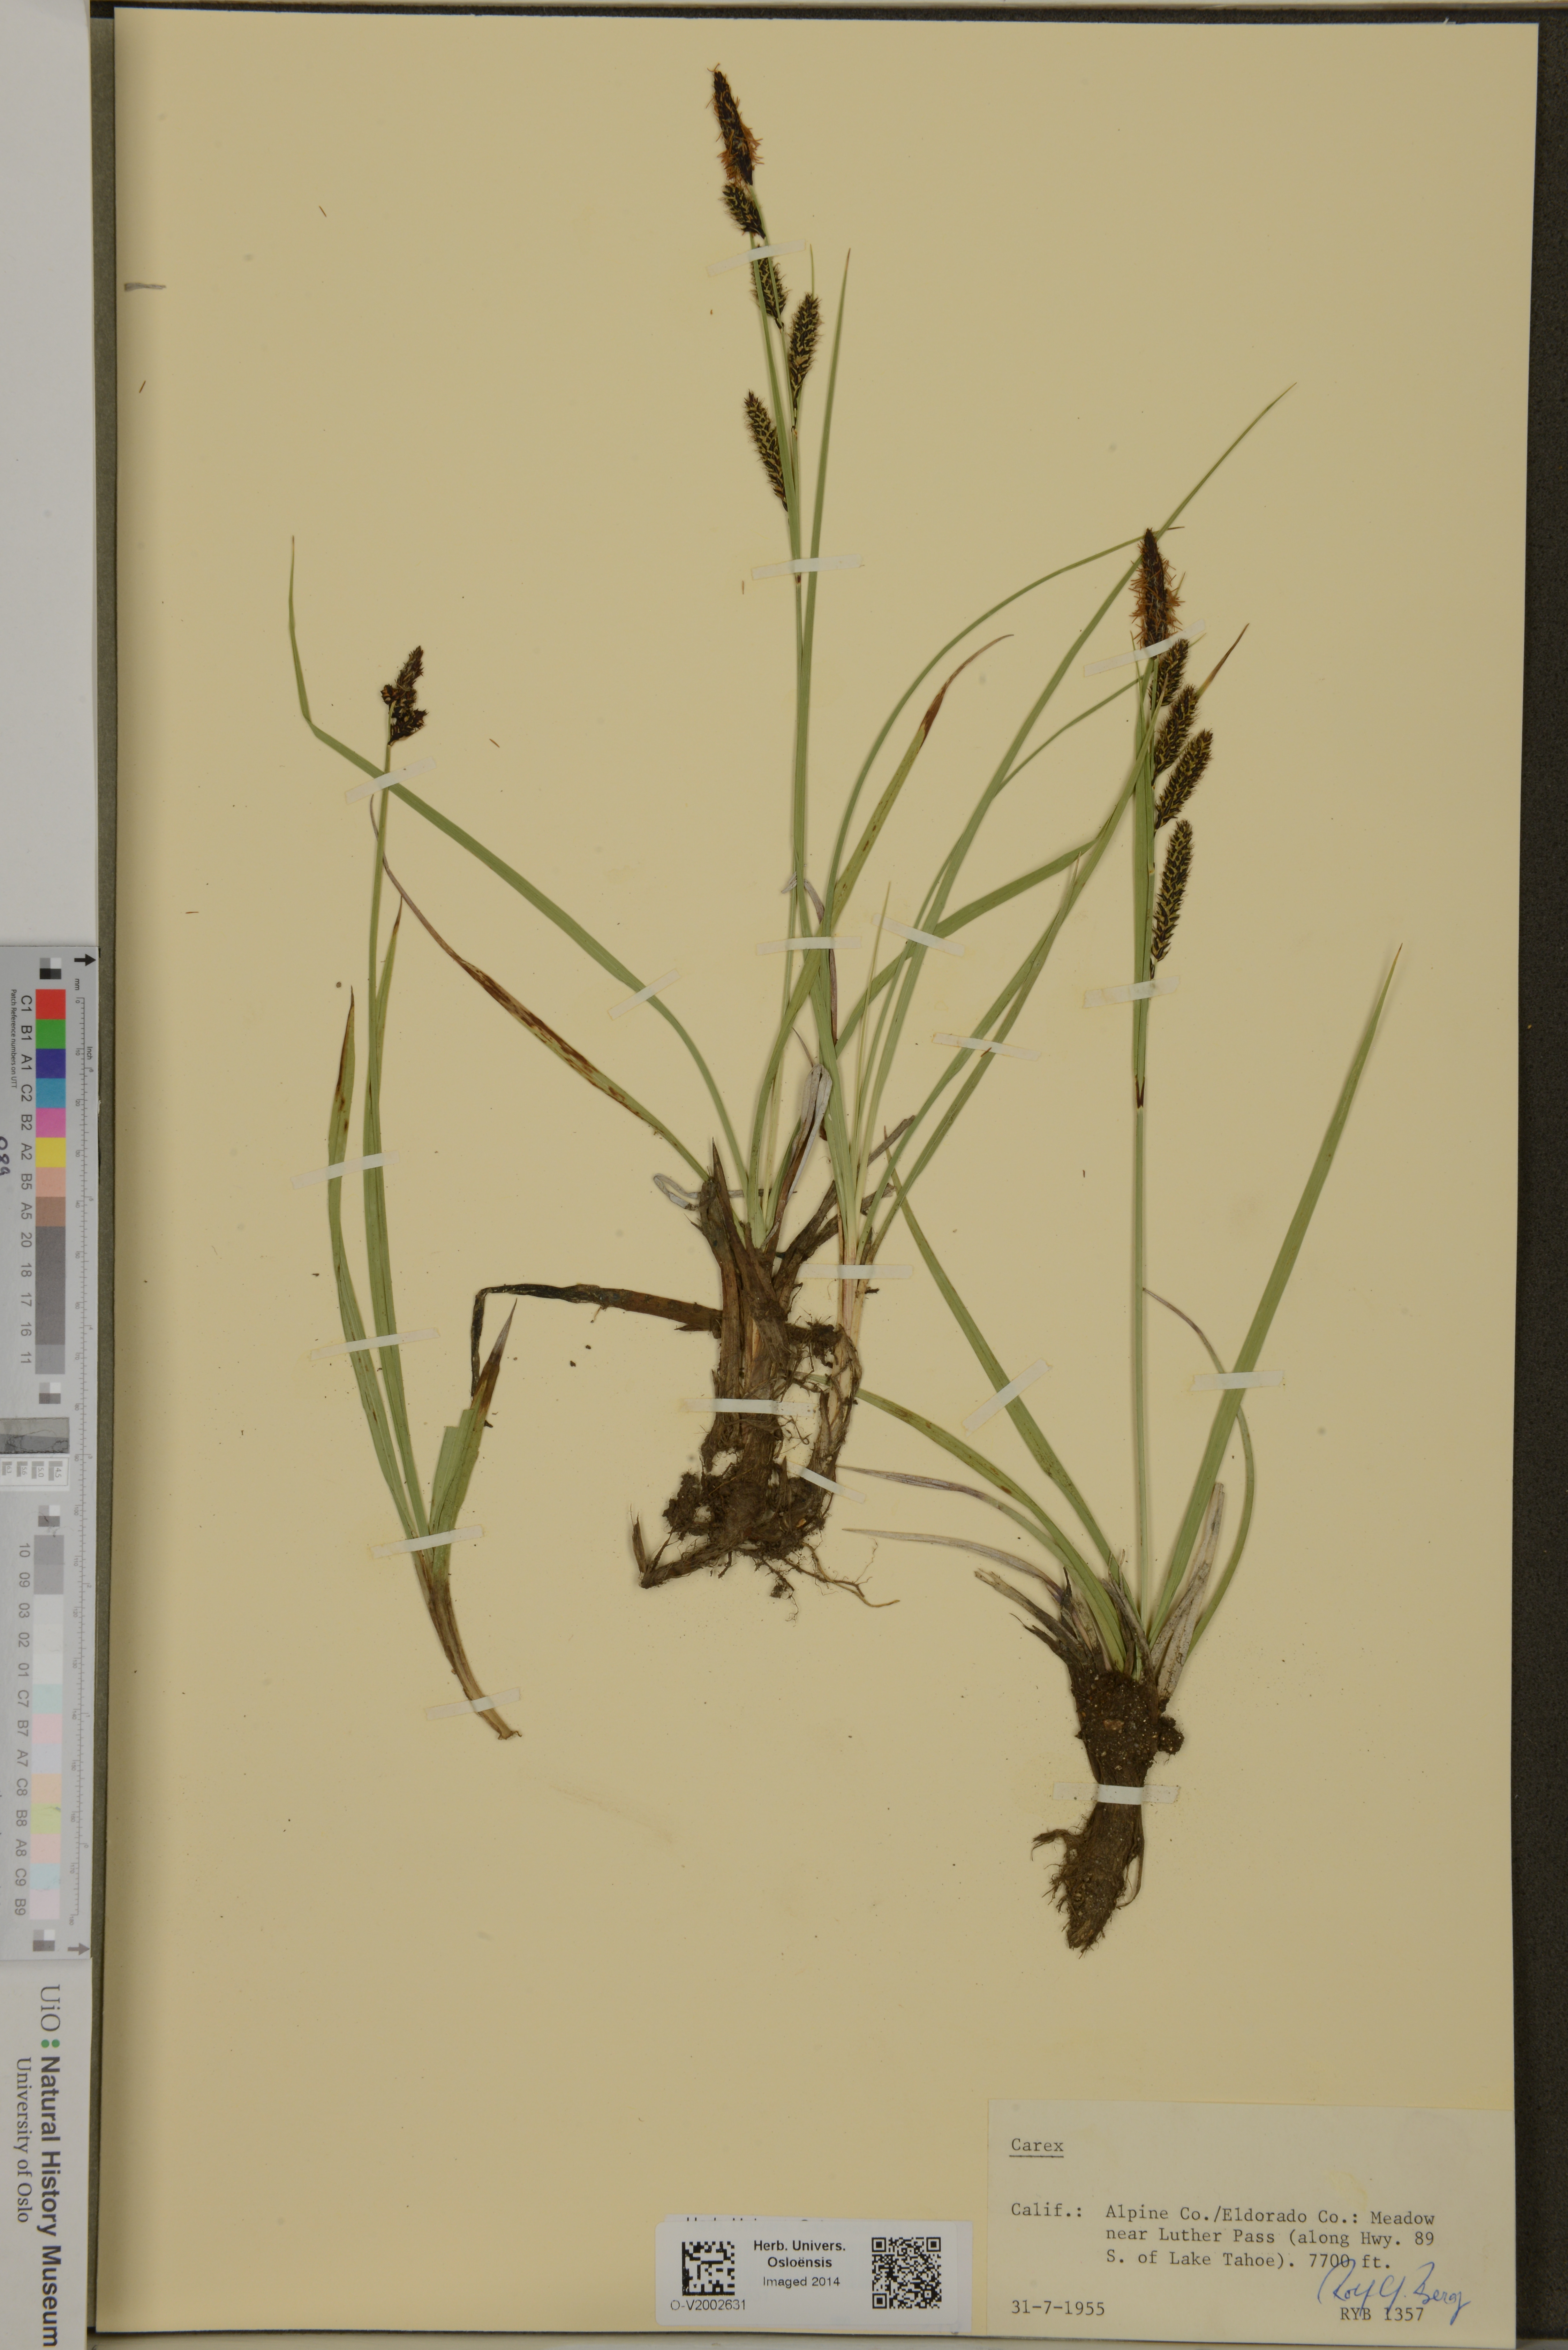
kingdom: Plantae
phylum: Tracheophyta
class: Liliopsida
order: Poales
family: Cyperaceae
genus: Carex
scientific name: Carex
